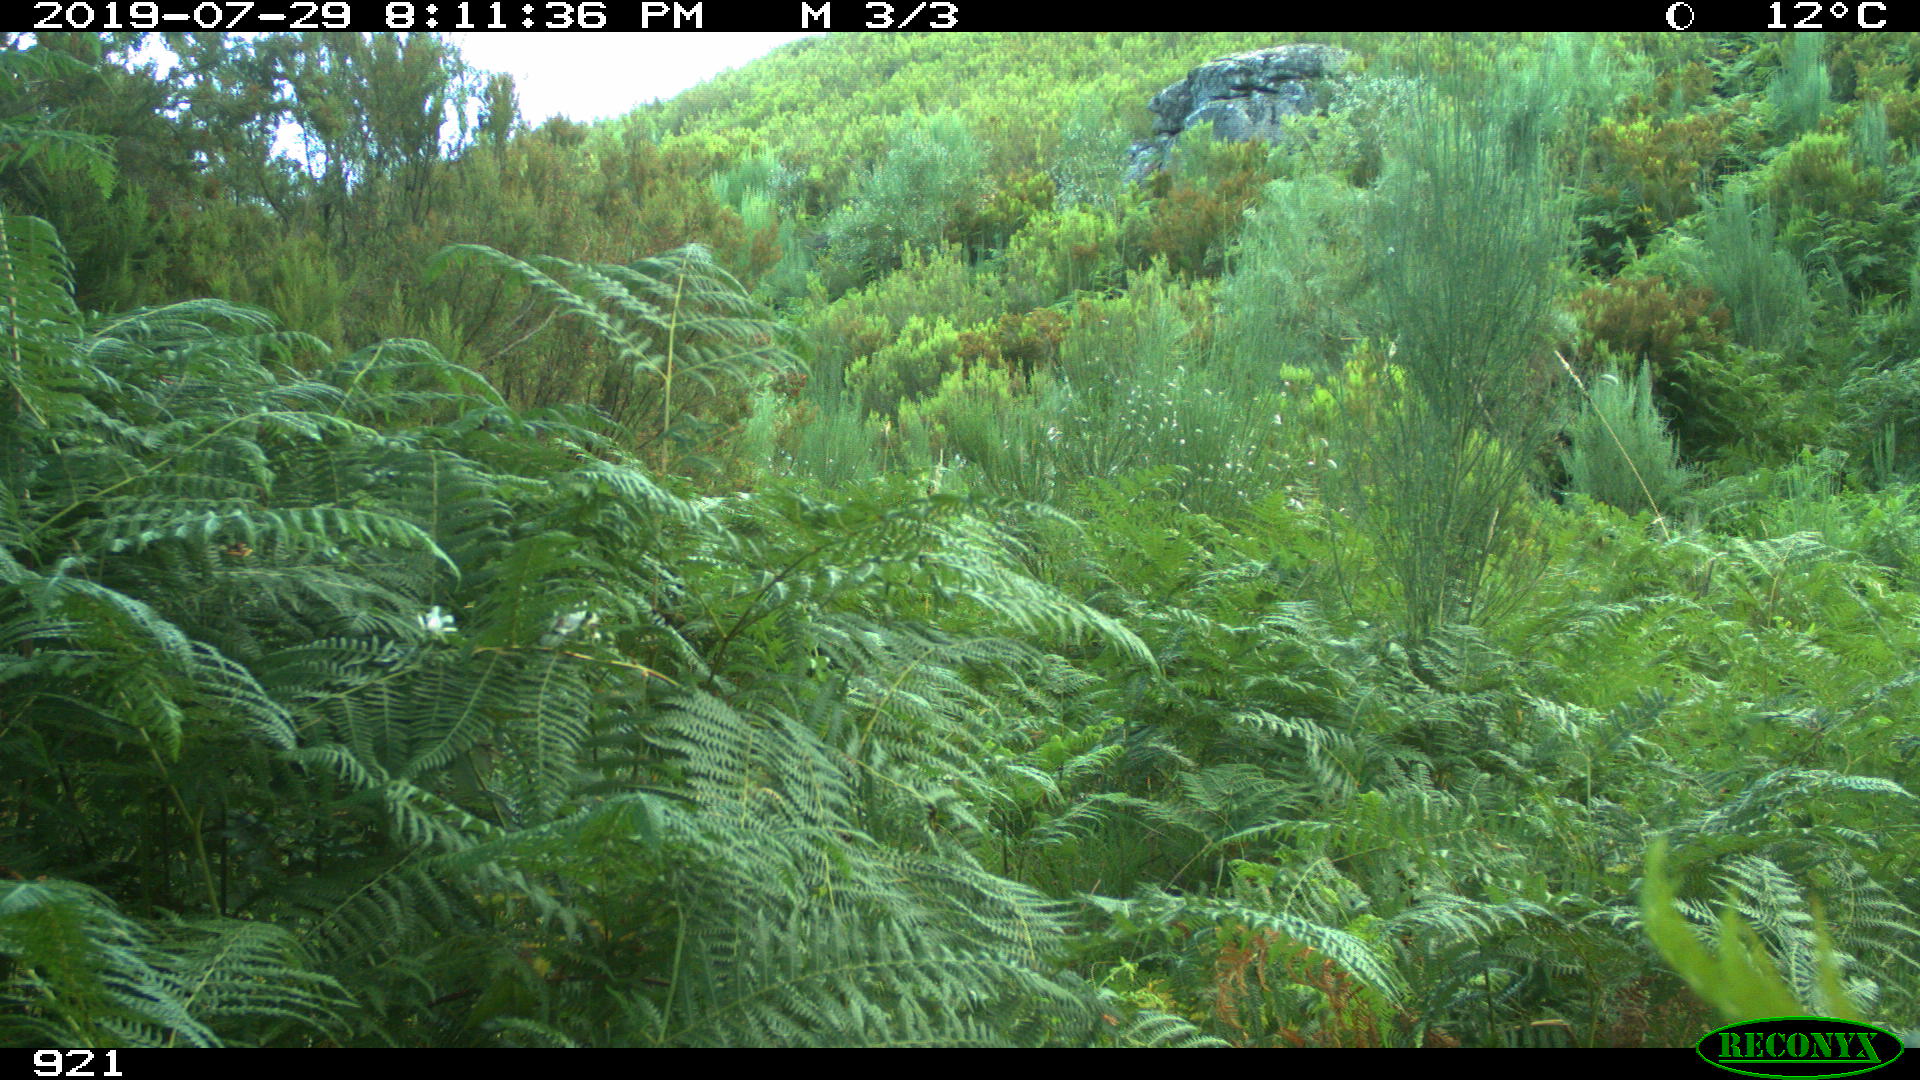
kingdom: Animalia
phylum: Chordata
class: Mammalia
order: Perissodactyla
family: Equidae
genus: Equus
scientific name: Equus caballus
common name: Horse
